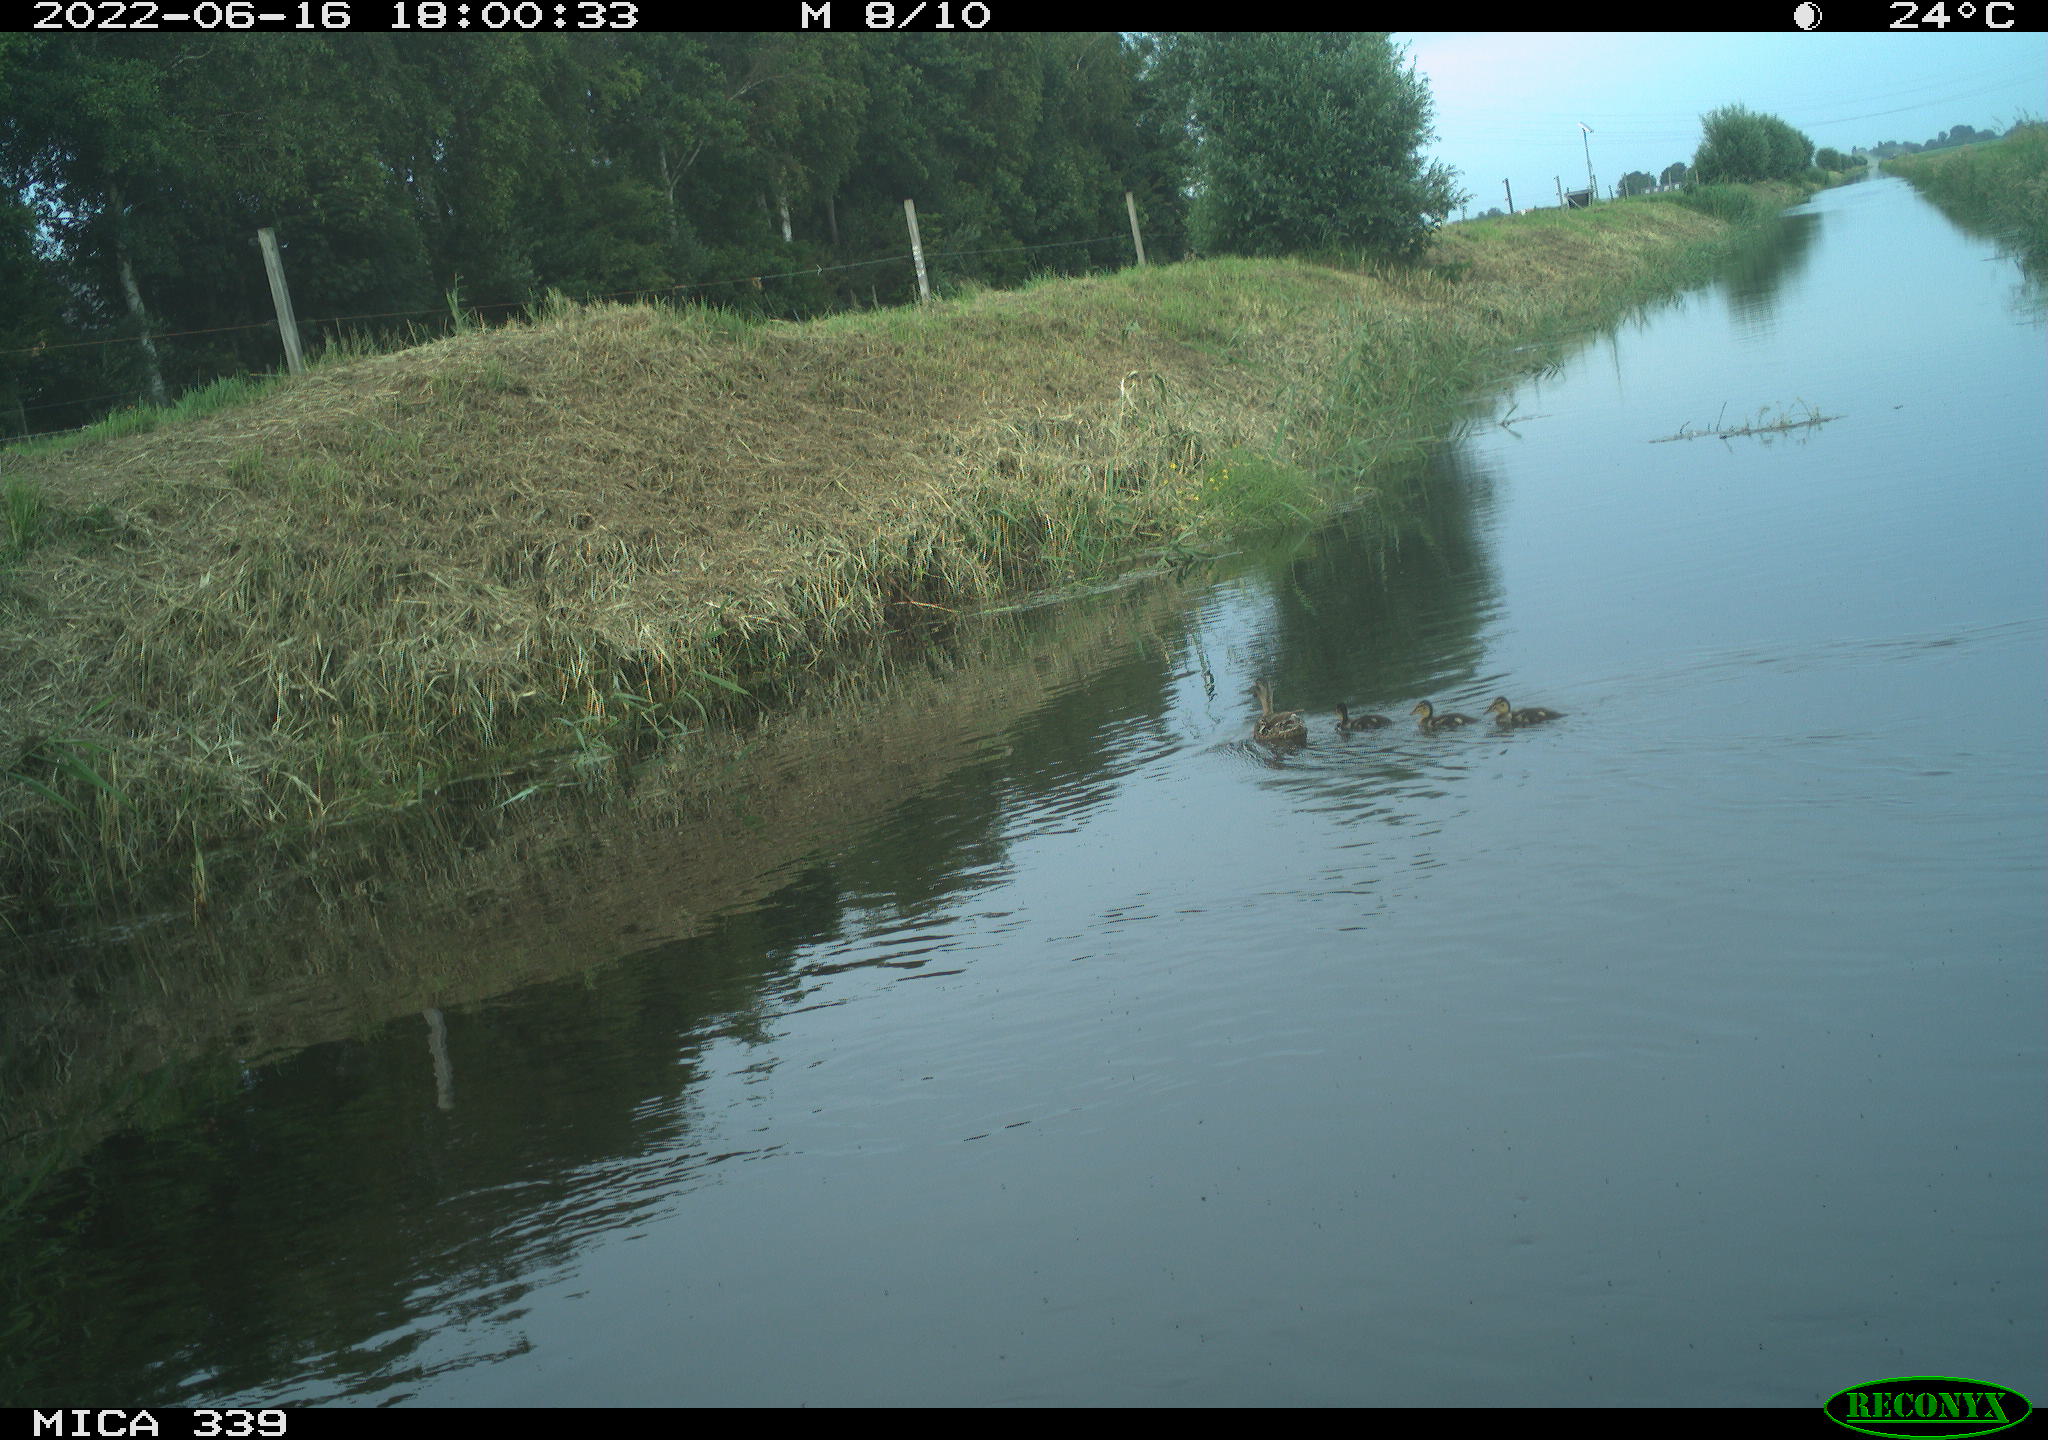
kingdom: Animalia
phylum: Chordata
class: Aves
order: Anseriformes
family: Anatidae
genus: Anas
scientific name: Anas platyrhynchos
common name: Mallard
